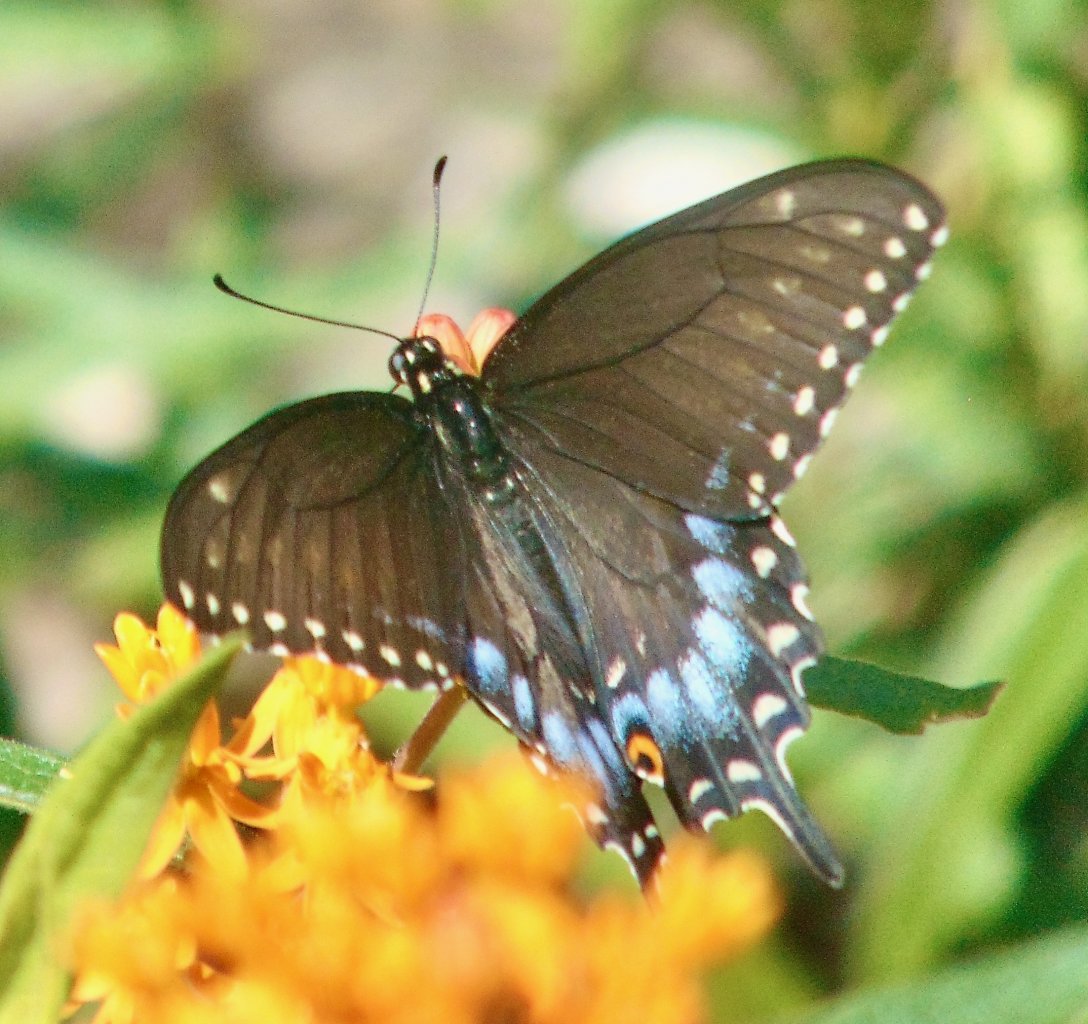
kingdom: Animalia
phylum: Arthropoda
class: Insecta
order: Lepidoptera
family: Papilionidae
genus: Papilio
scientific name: Papilio polyxenes
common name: Black Swallowtail
